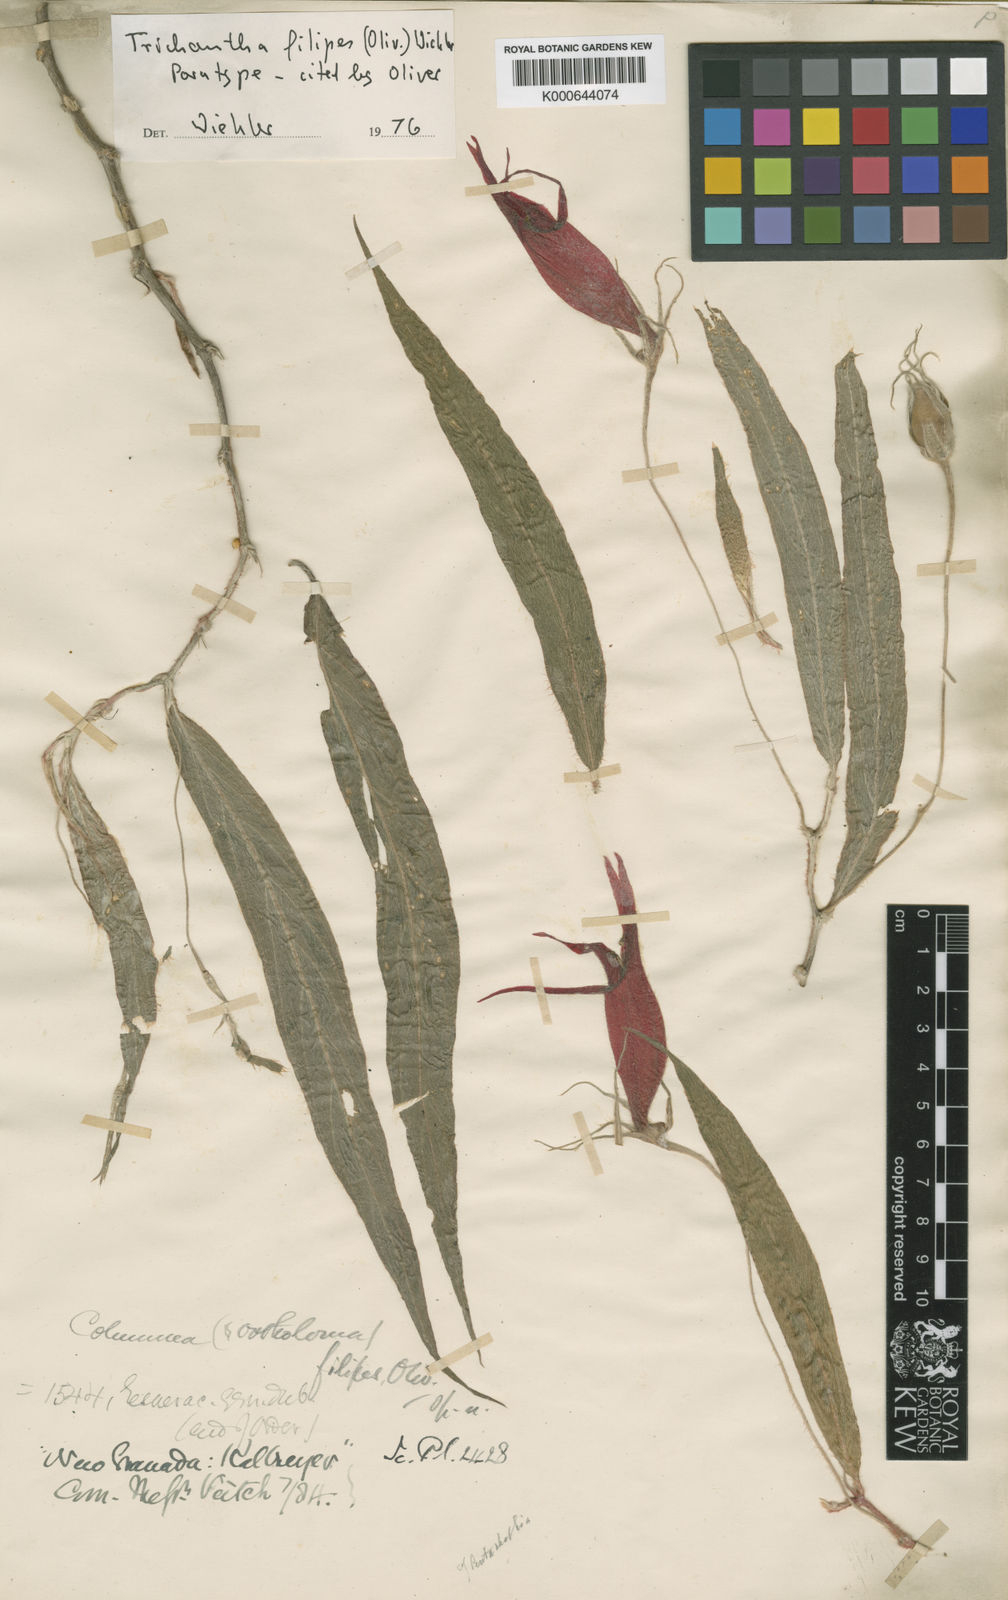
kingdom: Plantae
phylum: Tracheophyta
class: Magnoliopsida
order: Lamiales
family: Gesneriaceae
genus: Columnea
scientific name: Columnea filipes
